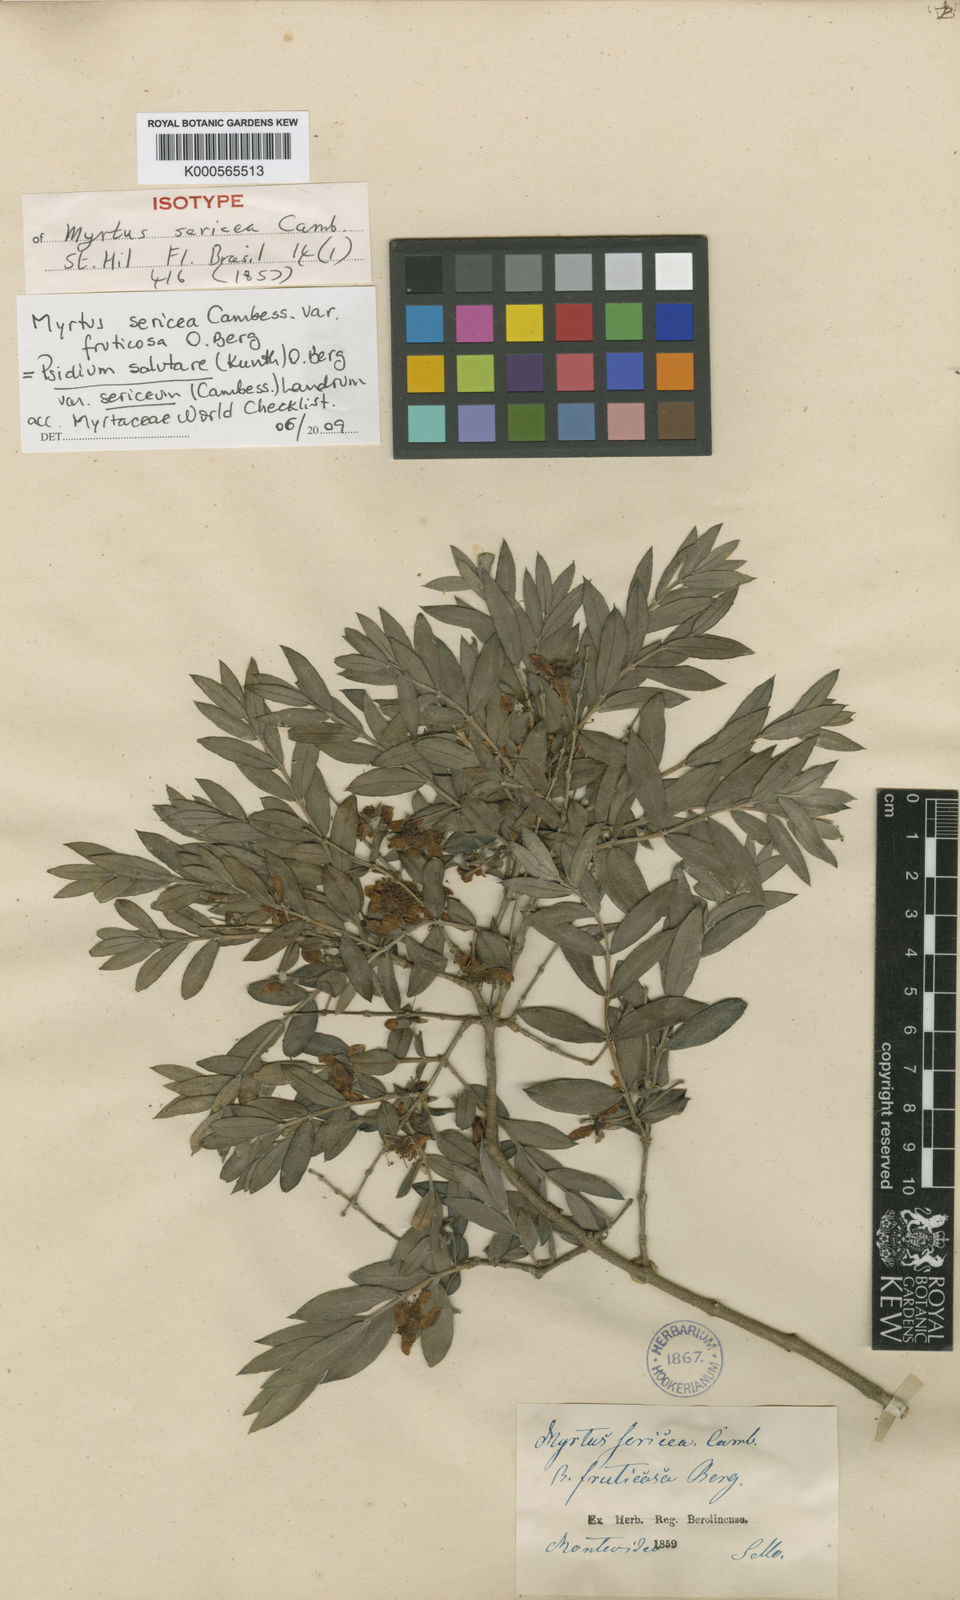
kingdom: Plantae
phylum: Tracheophyta
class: Magnoliopsida
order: Myrtales
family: Myrtaceae
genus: Psidium
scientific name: Psidium salutare
